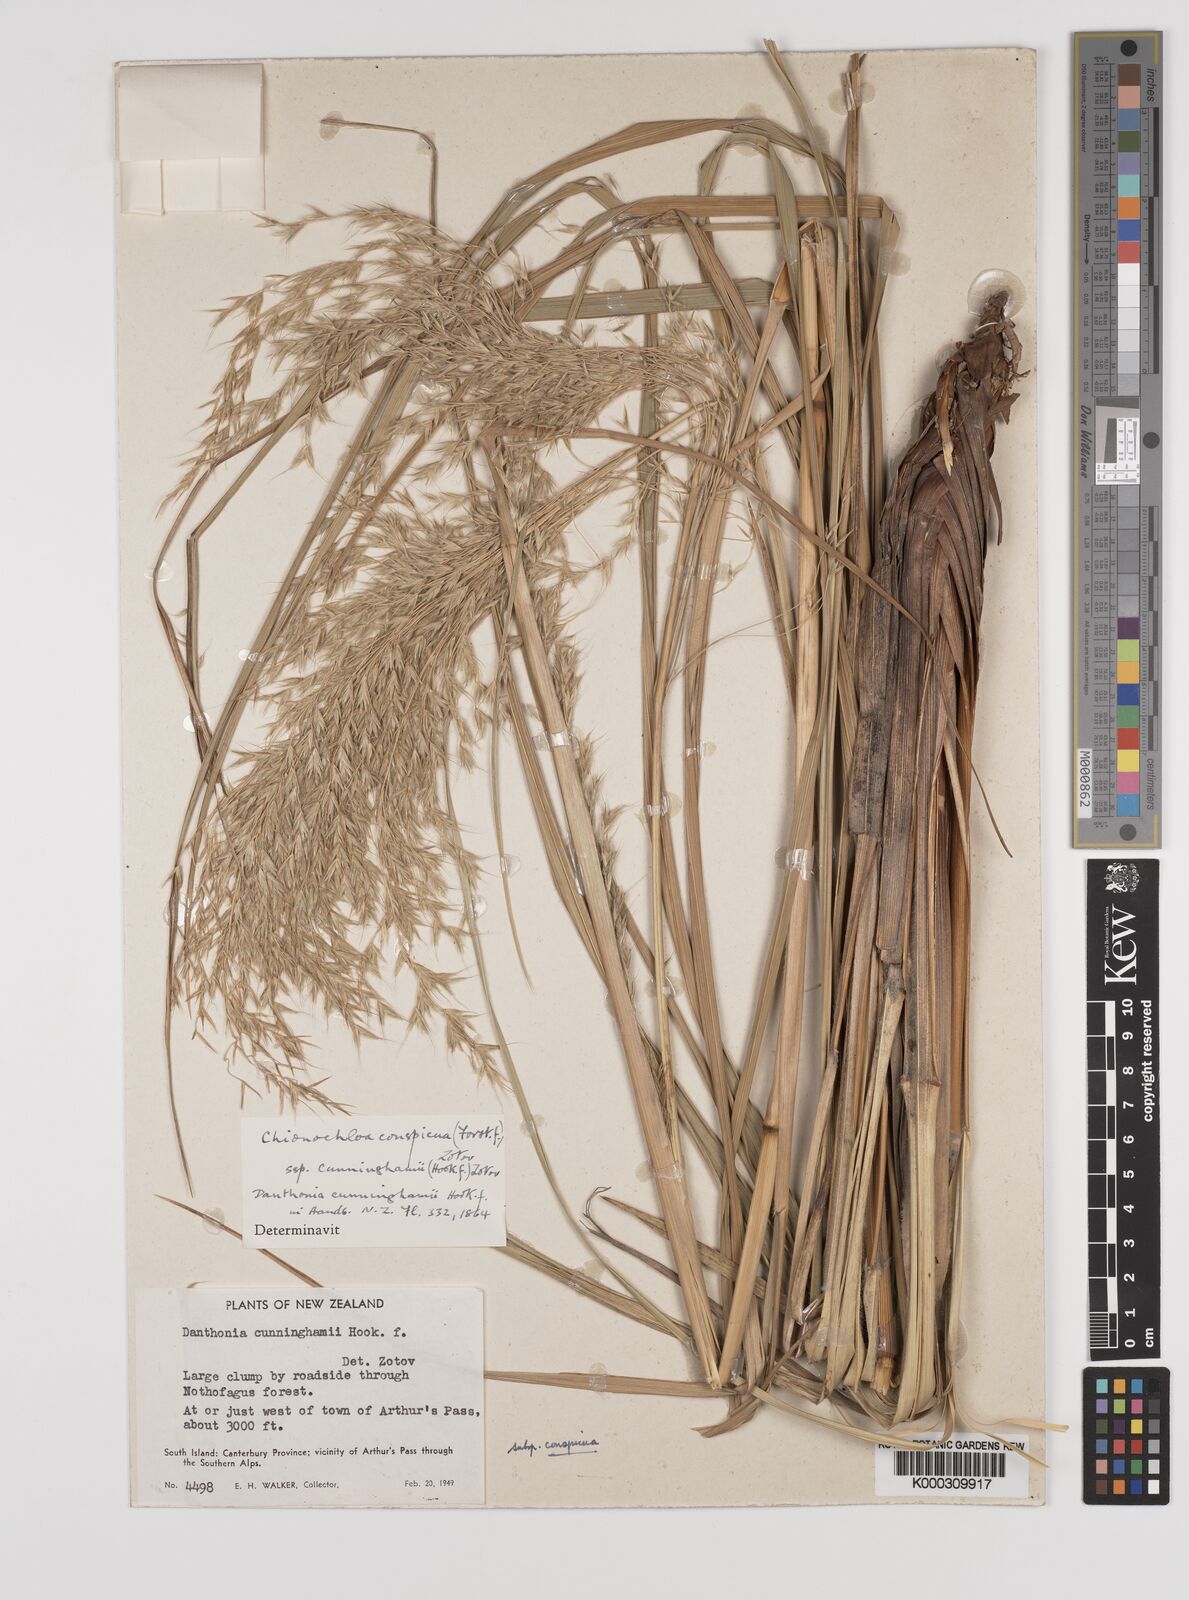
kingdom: Plantae
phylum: Tracheophyta
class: Liliopsida
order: Poales
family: Poaceae
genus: Chionochloa
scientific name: Chionochloa conspicua
